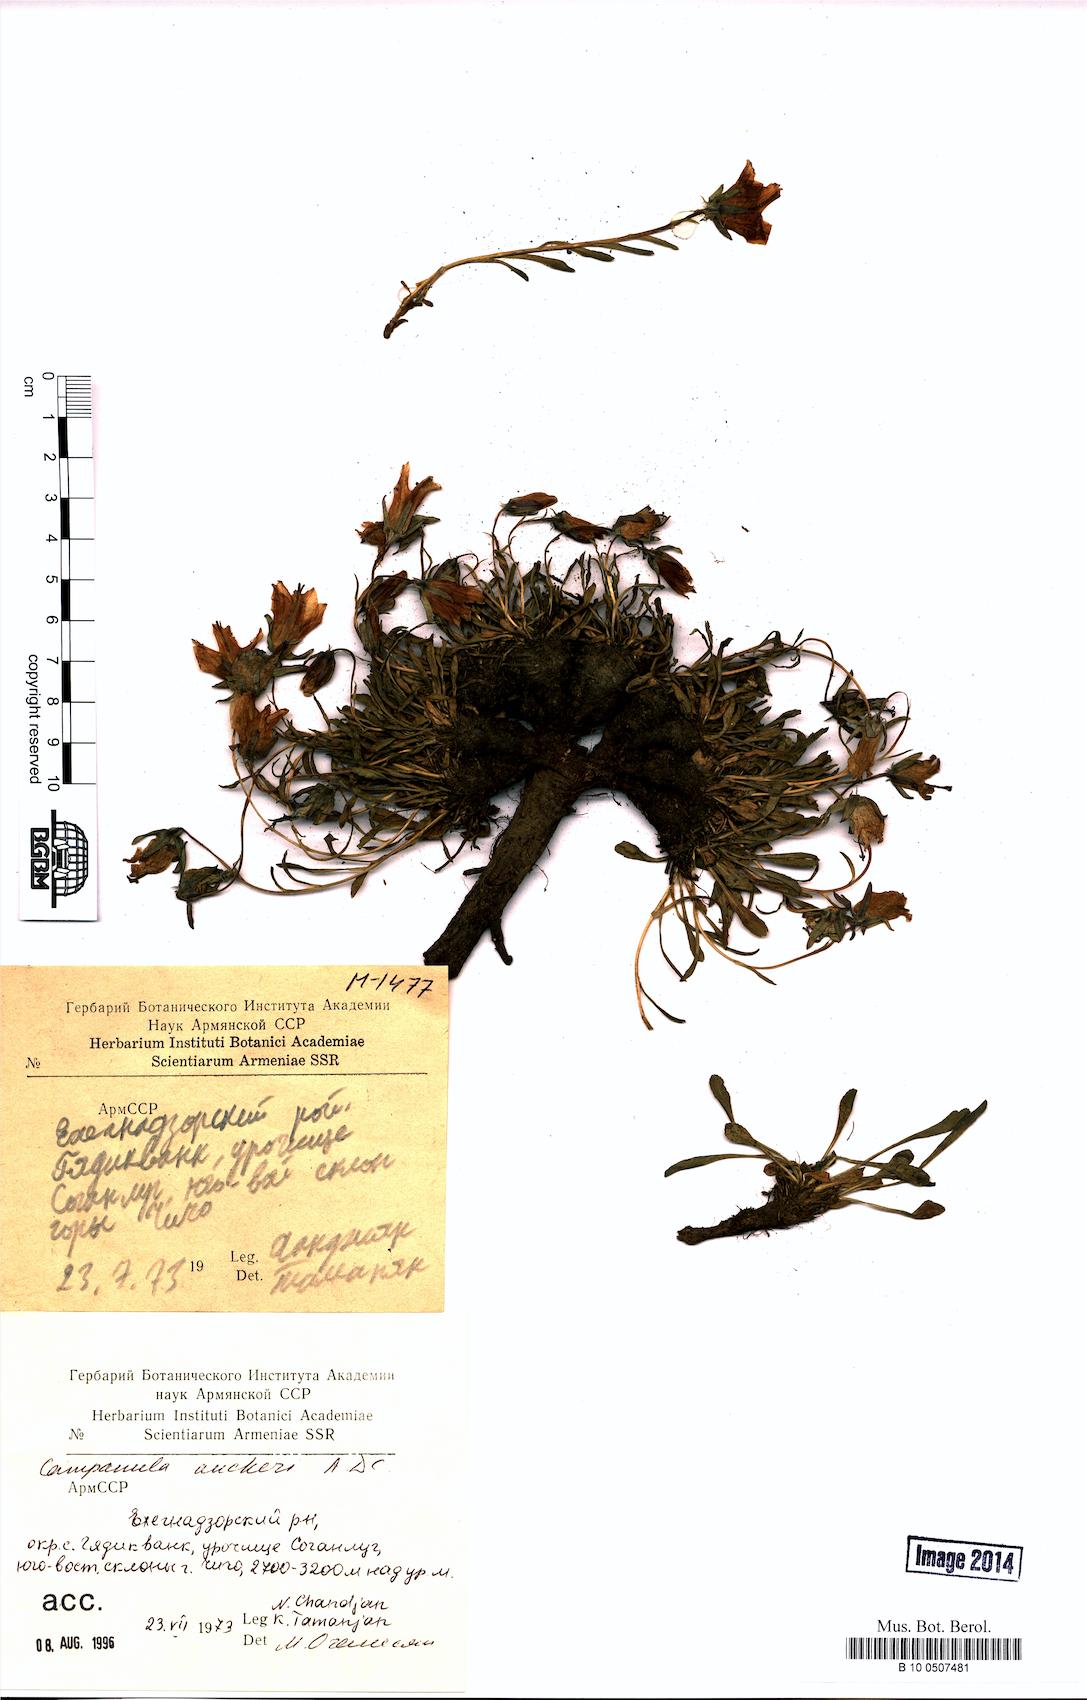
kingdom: Plantae
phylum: Tracheophyta
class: Magnoliopsida
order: Asterales
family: Campanulaceae
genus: Campanula
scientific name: Campanula saxifraga
